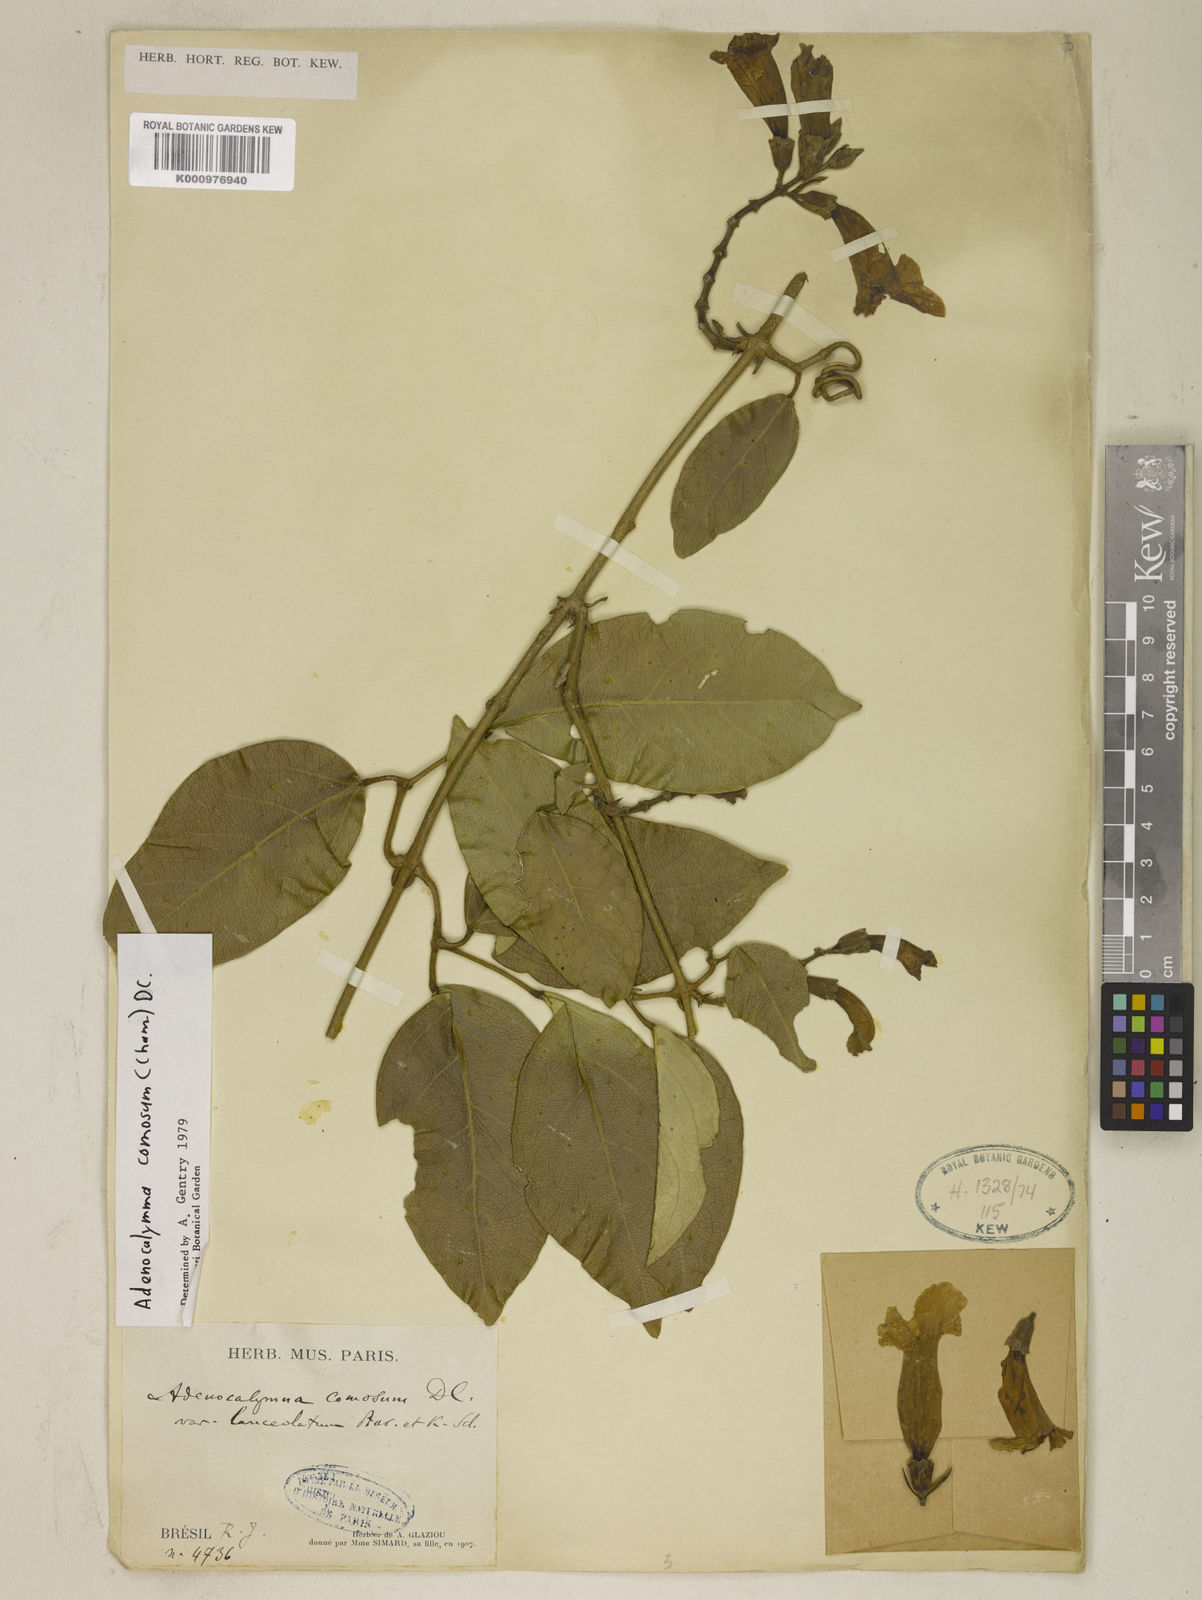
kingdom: Plantae
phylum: Tracheophyta
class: Magnoliopsida
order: Lamiales
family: Bignoniaceae
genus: Adenocalymma
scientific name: Adenocalymma acutissimum
